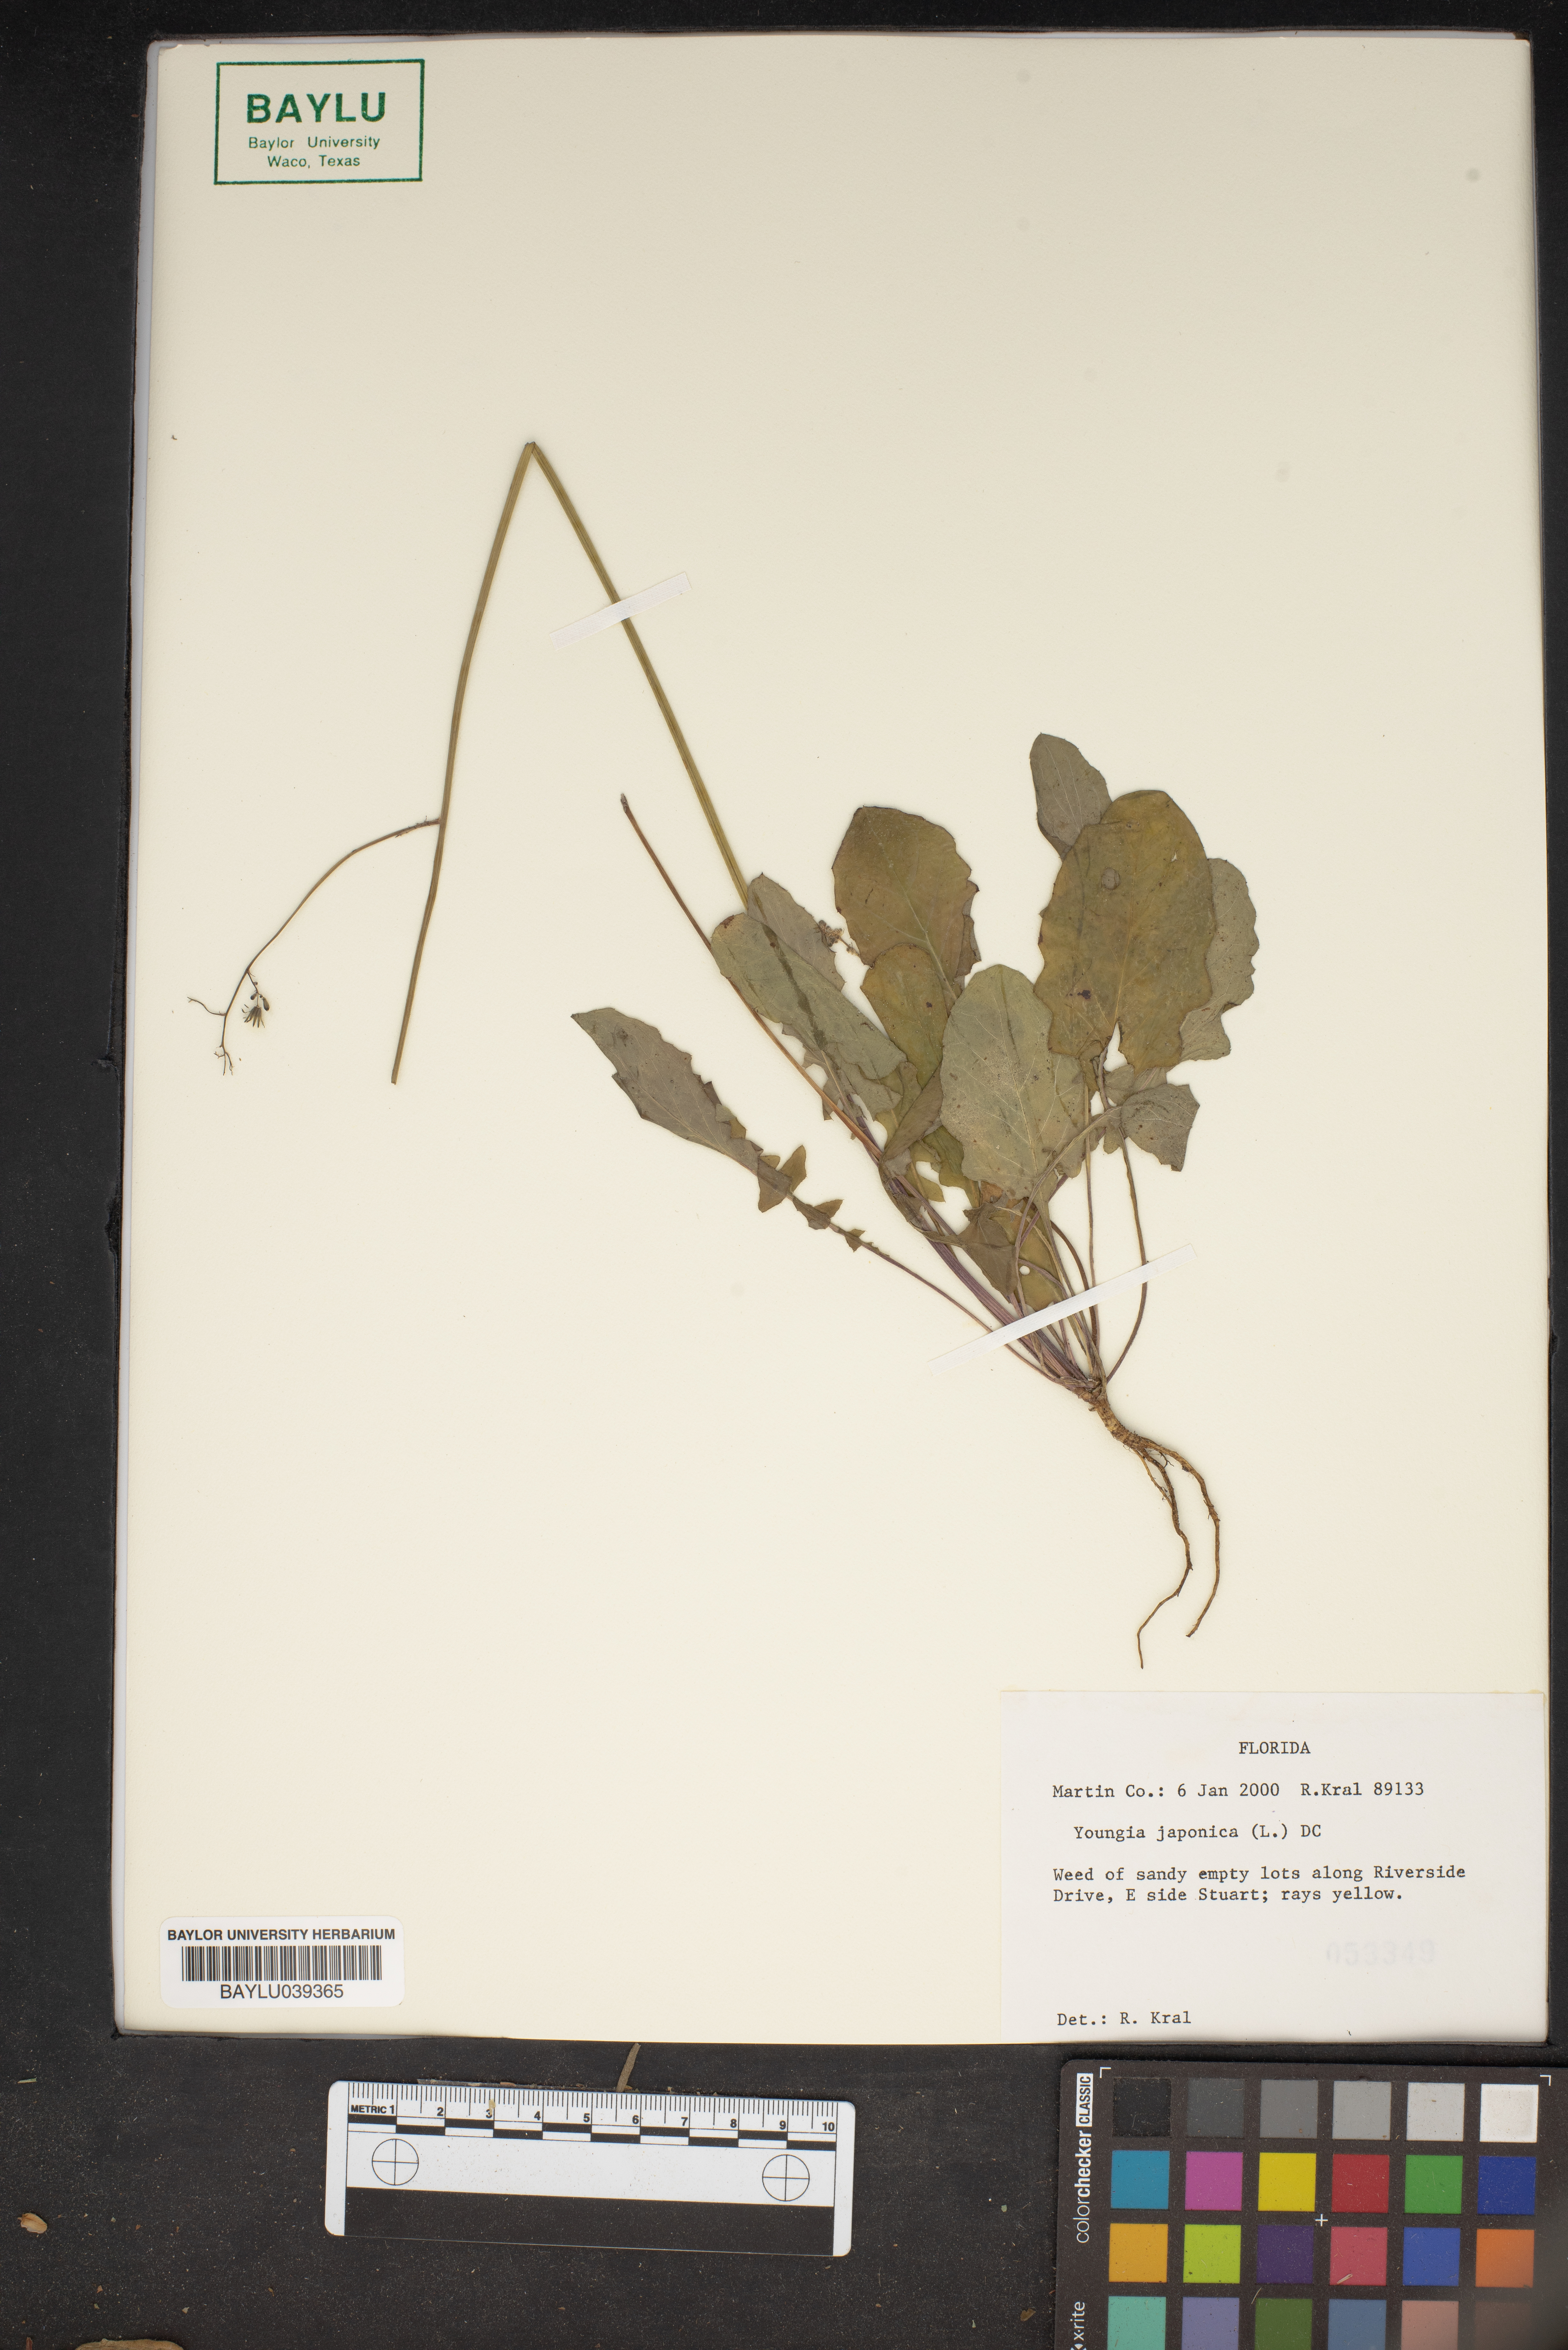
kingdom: Plantae
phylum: Tracheophyta
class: Magnoliopsida
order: Asterales
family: Asteraceae
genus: Youngia
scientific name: Youngia japonica
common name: Oriental false hawksbeard
